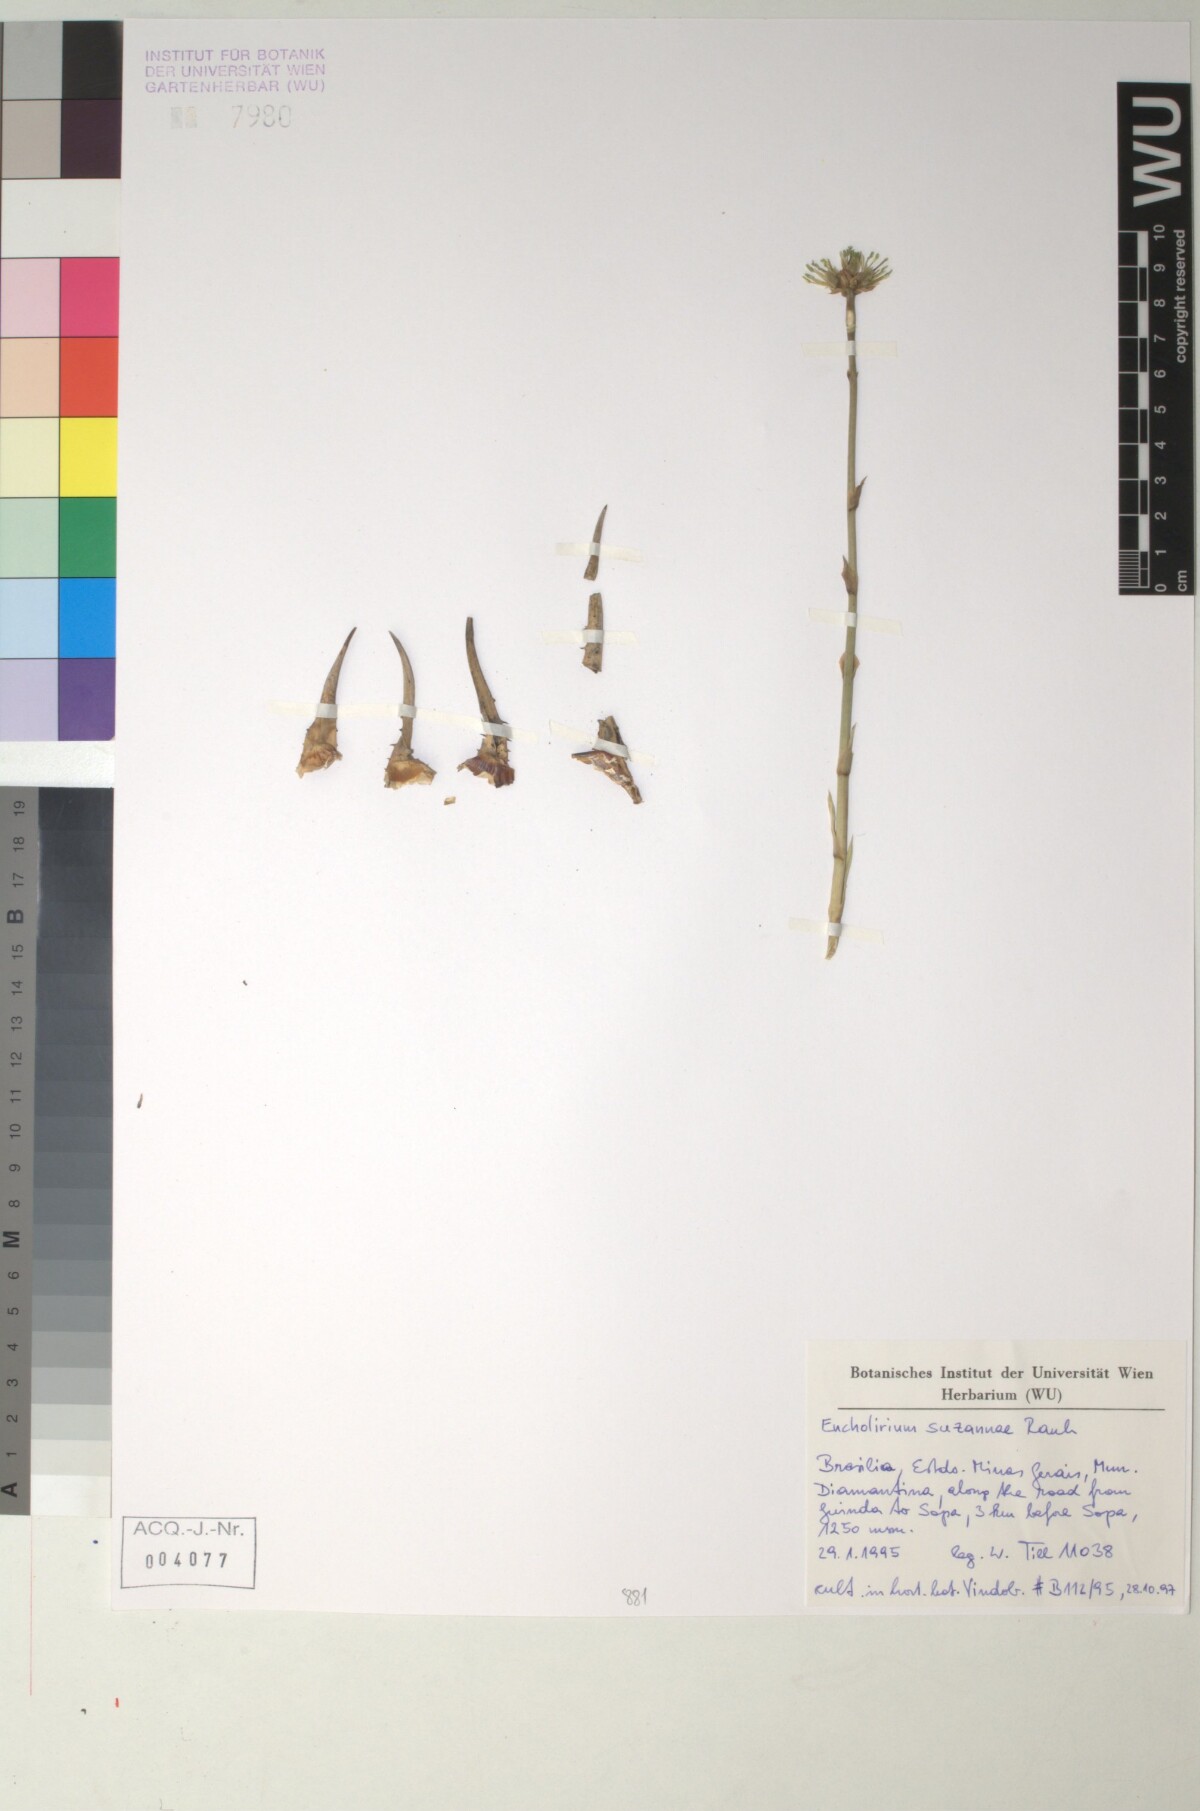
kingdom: Plantae
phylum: Tracheophyta
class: Liliopsida
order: Poales
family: Bromeliaceae
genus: Encholirium
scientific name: Encholirium
